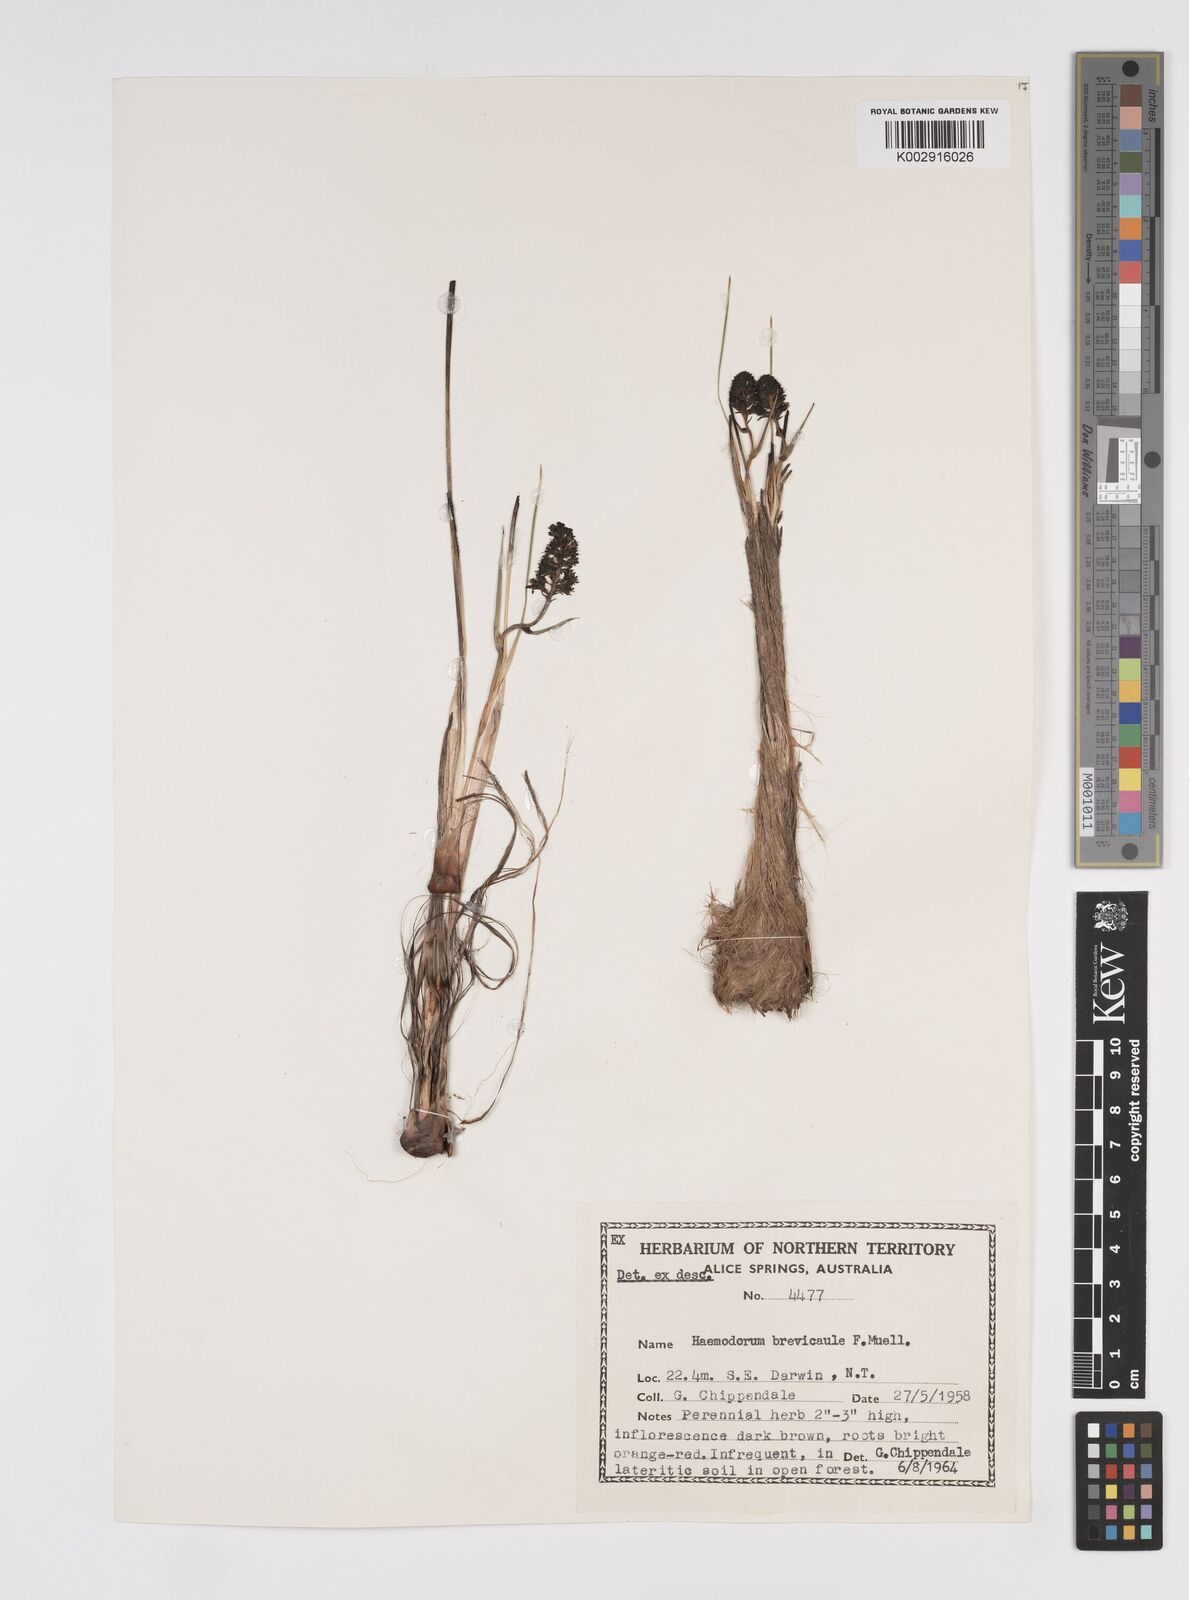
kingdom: Plantae
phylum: Tracheophyta
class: Liliopsida
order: Commelinales
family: Haemodoraceae
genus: Haemodorum
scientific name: Haemodorum brevicaule
